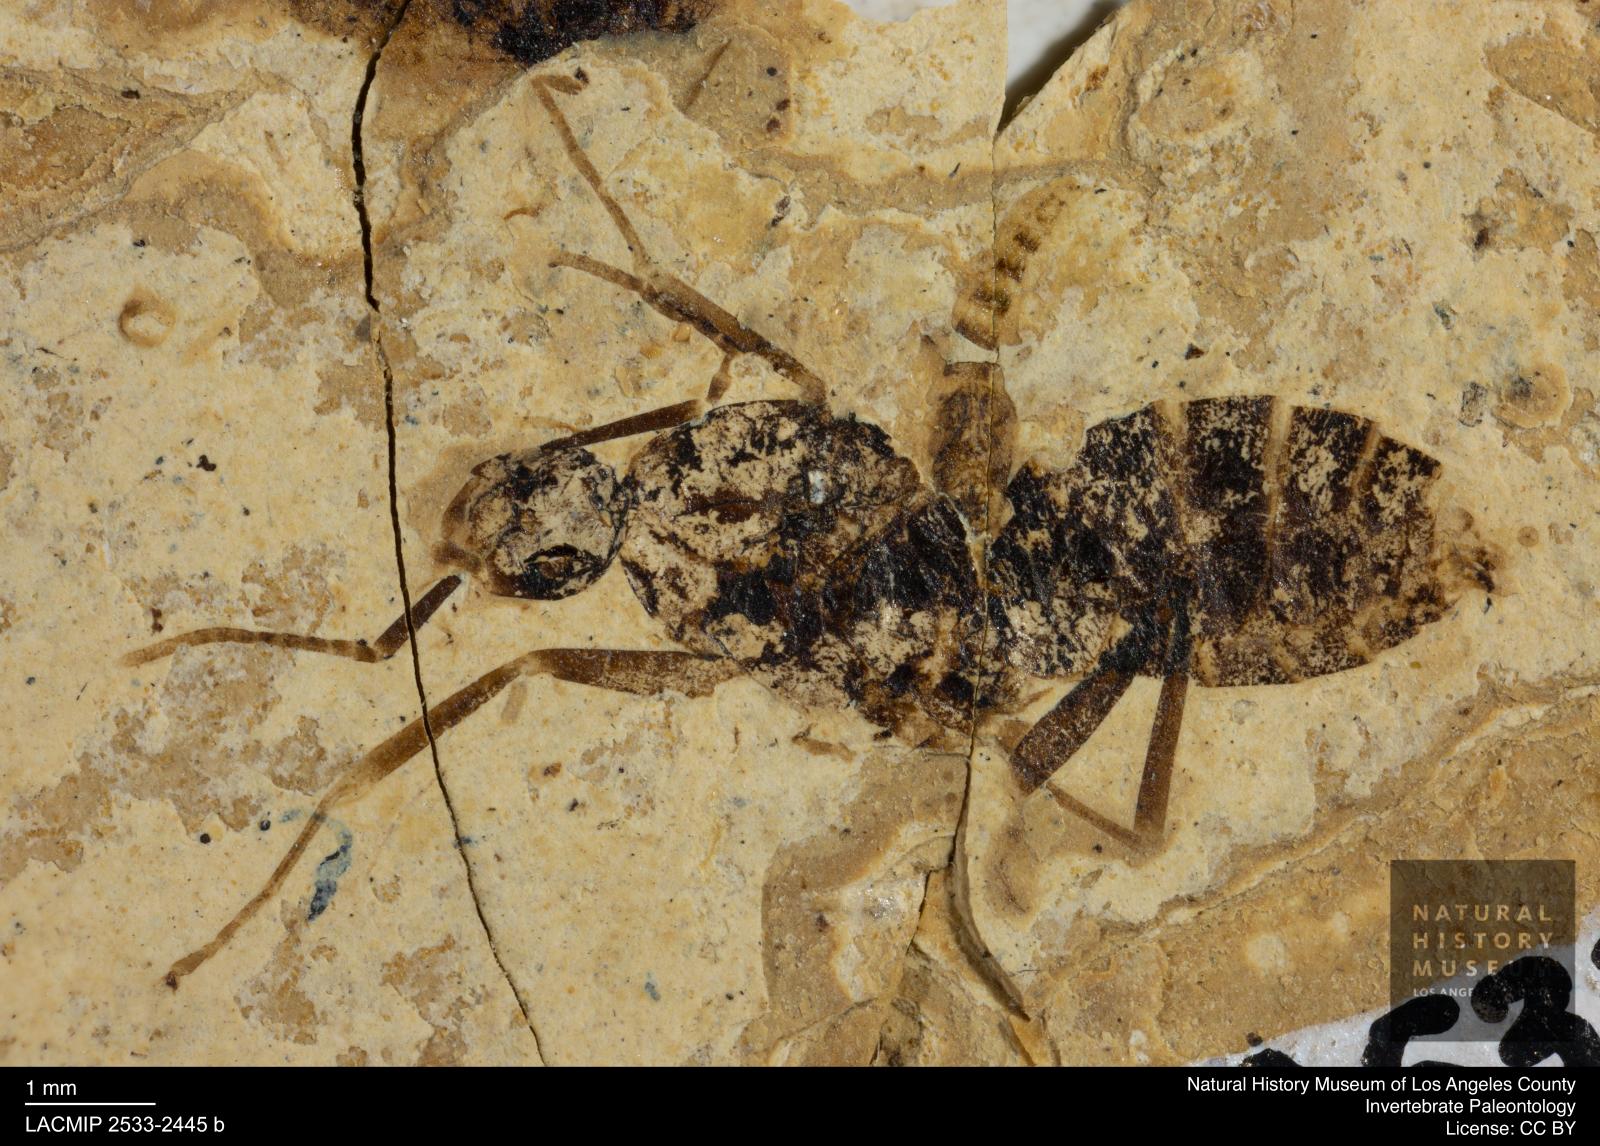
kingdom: Animalia
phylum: Arthropoda
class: Insecta
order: Hymenoptera
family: Formicidae
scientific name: Formicidae
